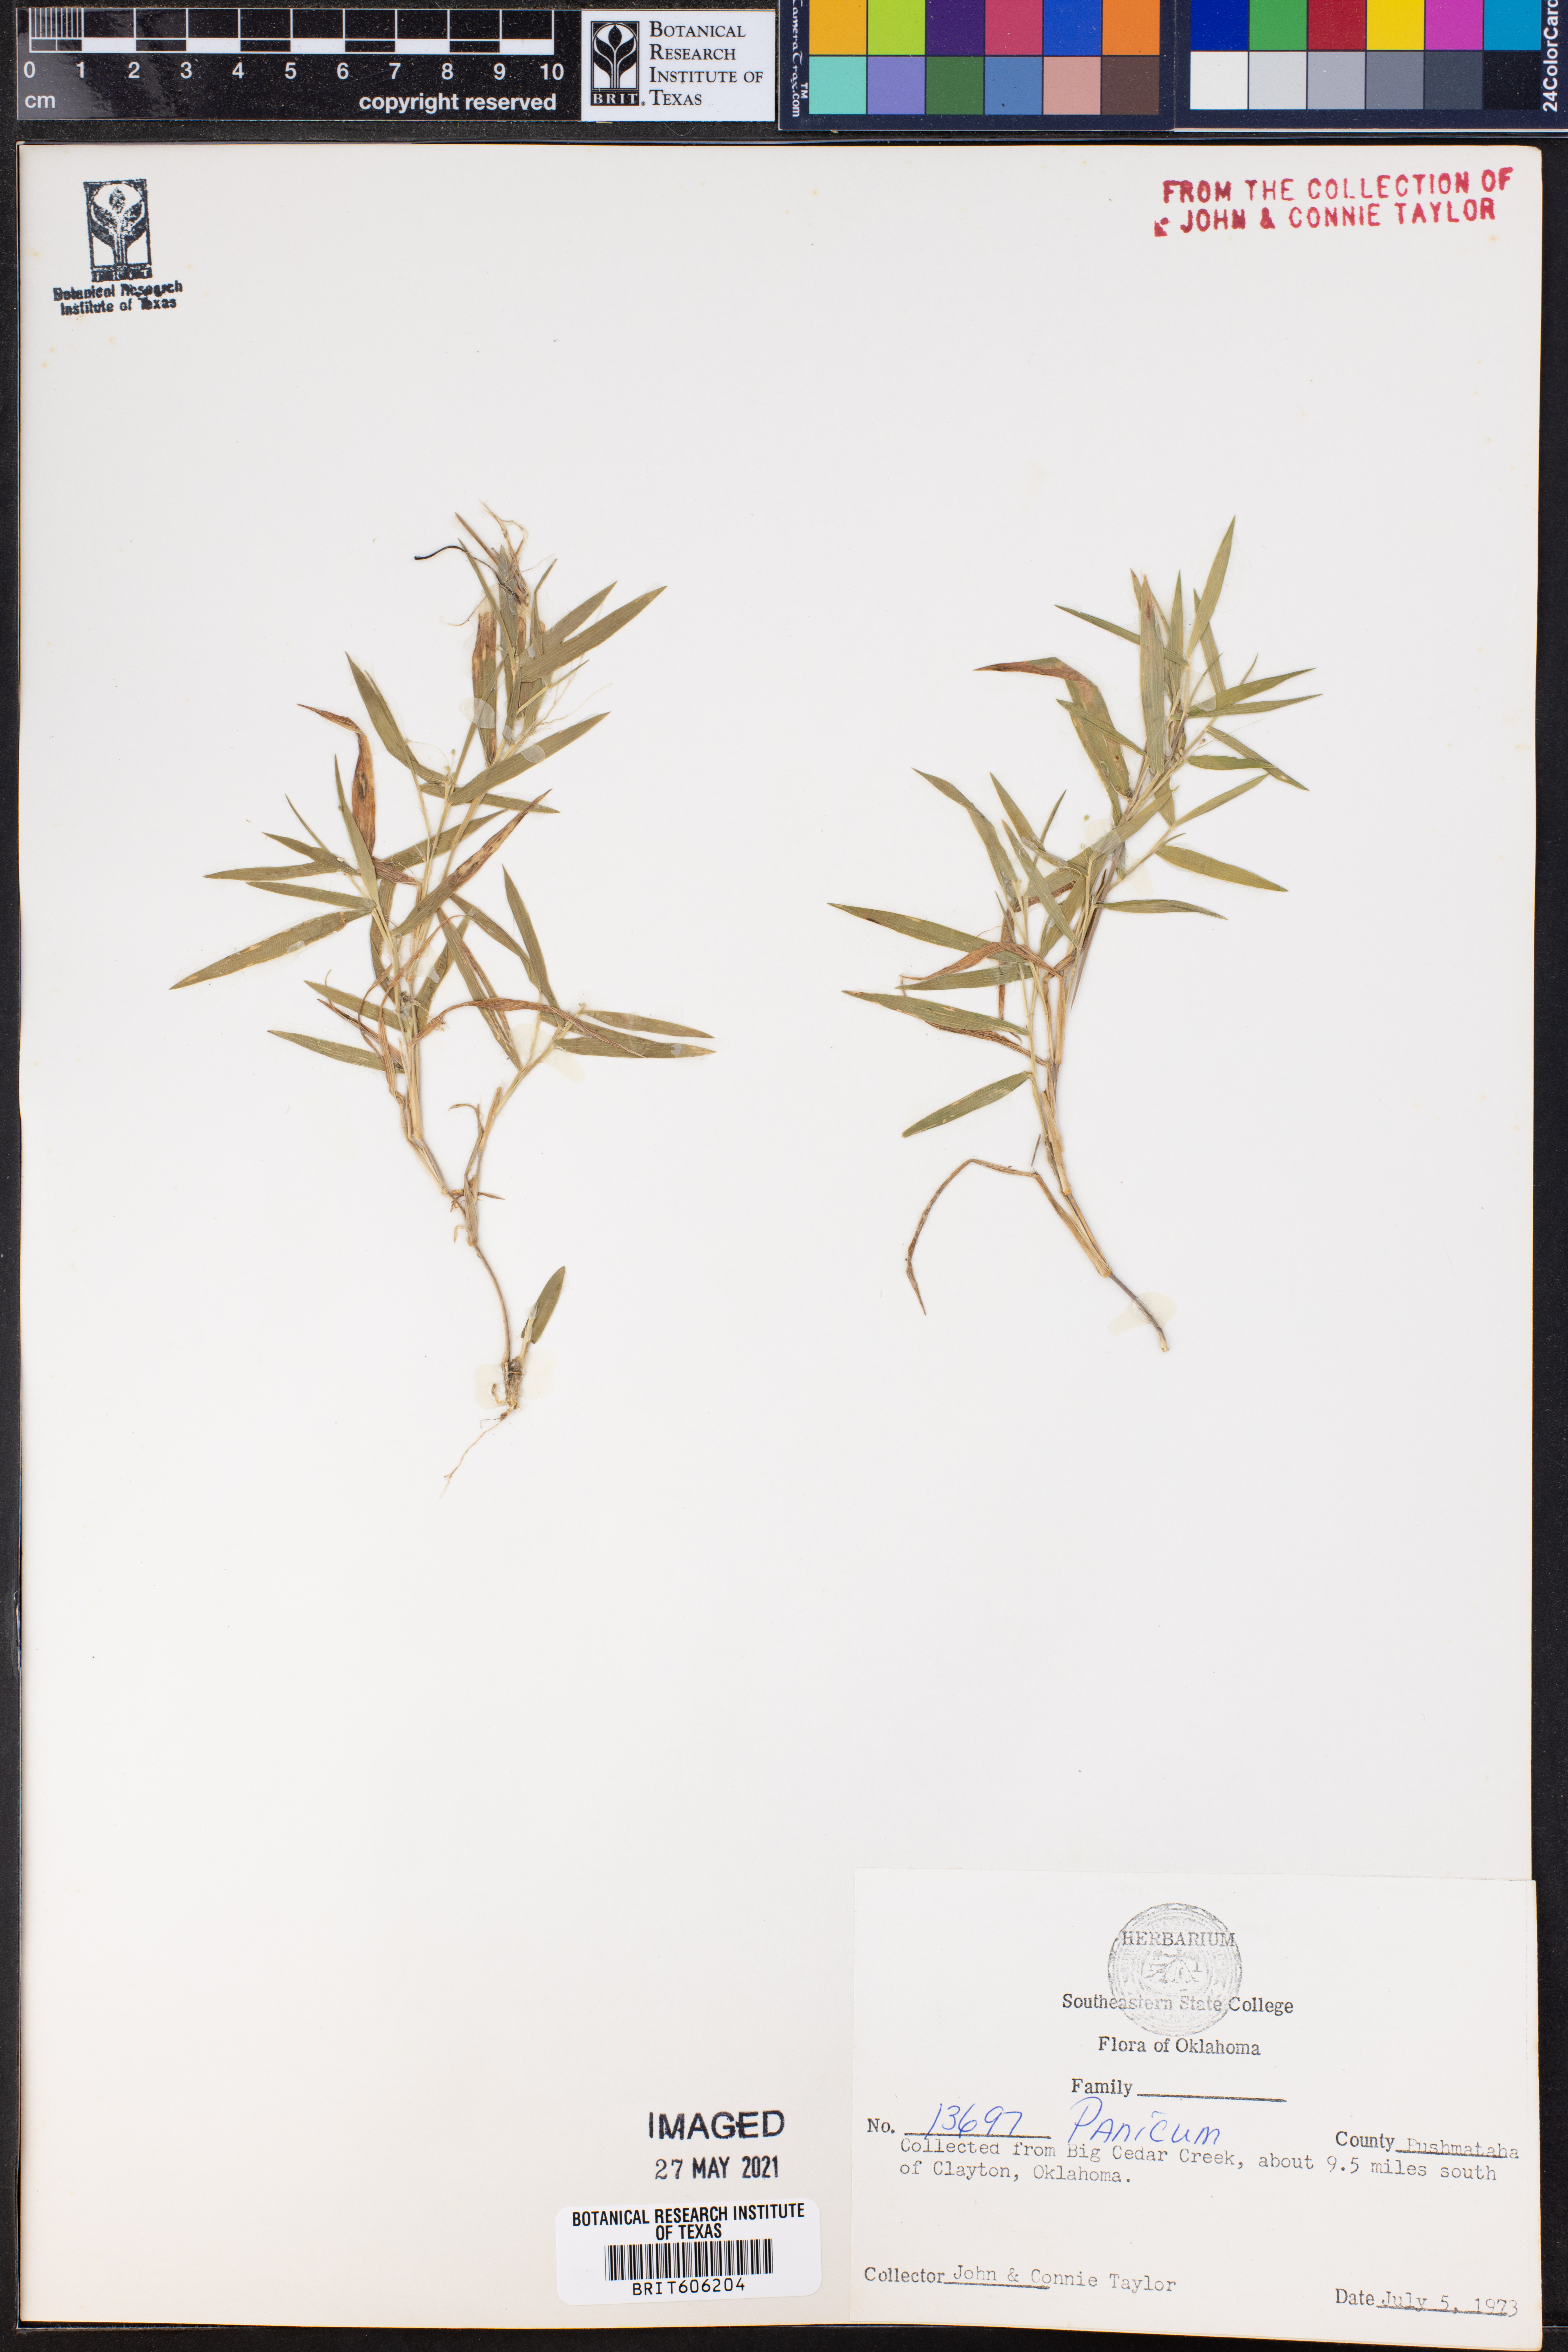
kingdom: Plantae
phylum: Tracheophyta
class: Liliopsida
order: Poales
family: Poaceae
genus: Panicum
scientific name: Panicum
